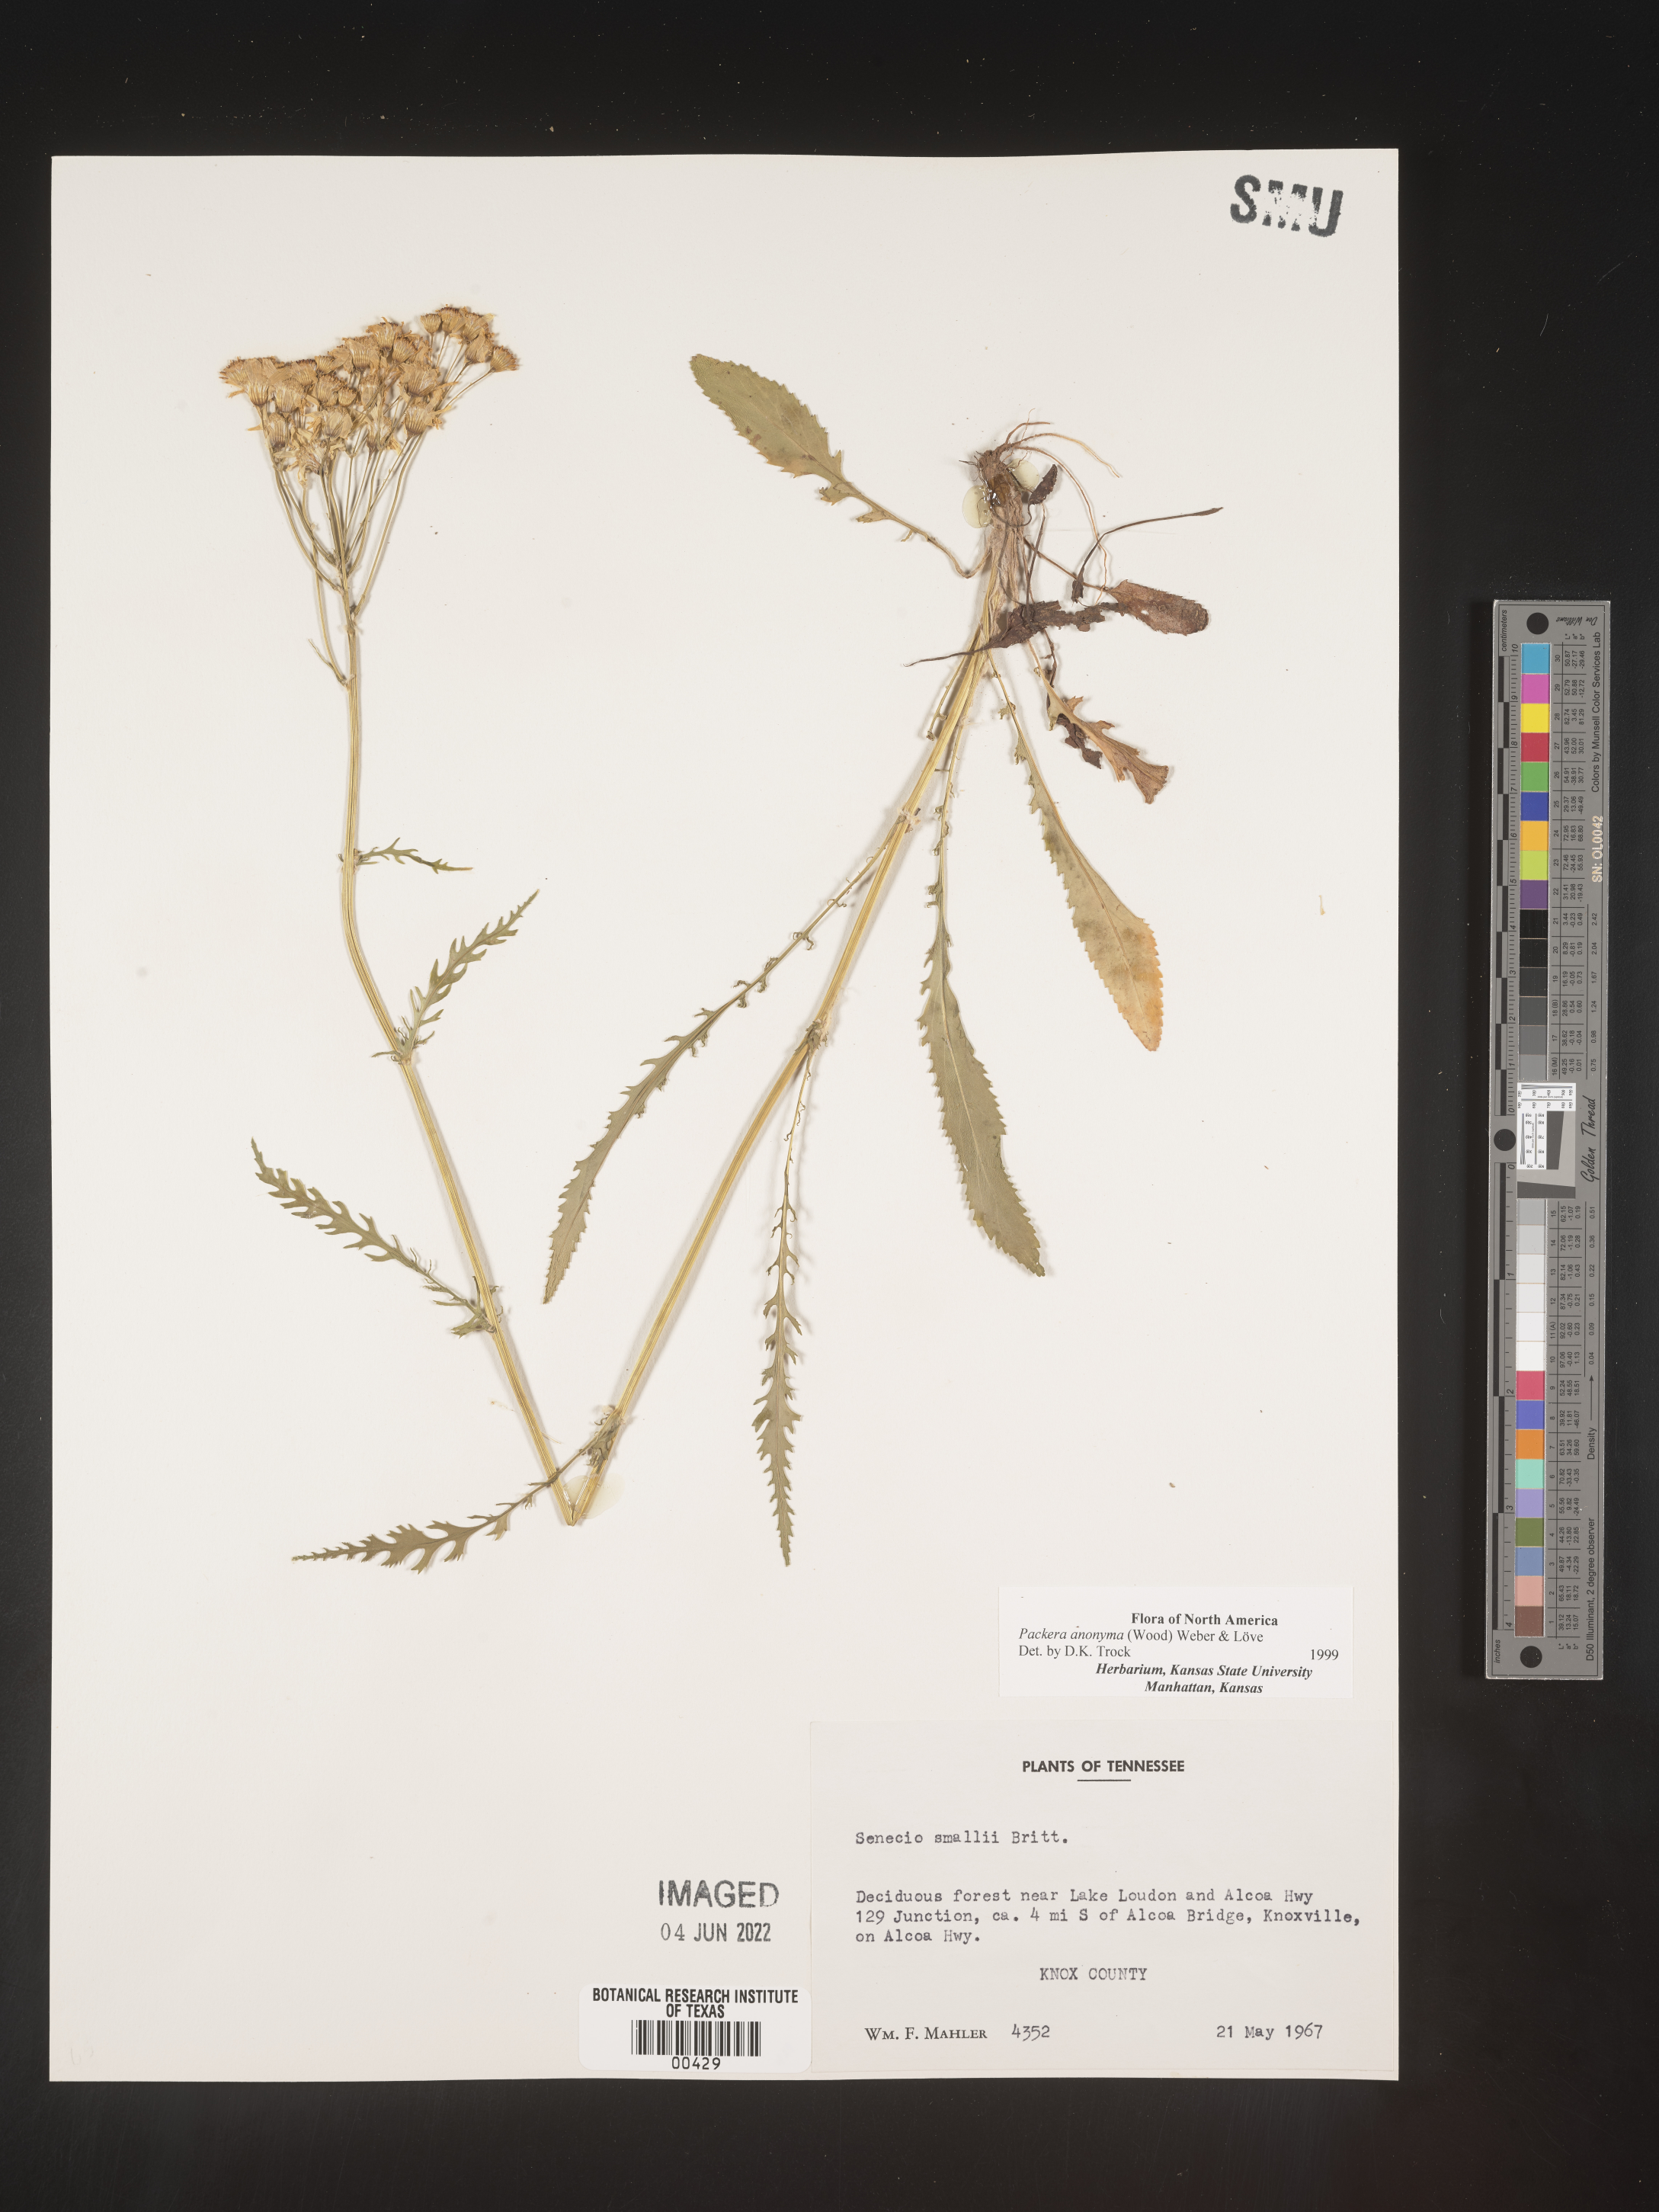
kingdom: Plantae
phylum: Tracheophyta
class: Magnoliopsida
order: Asterales
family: Asteraceae
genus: Packera
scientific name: Packera anonyma
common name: Small ragwort
